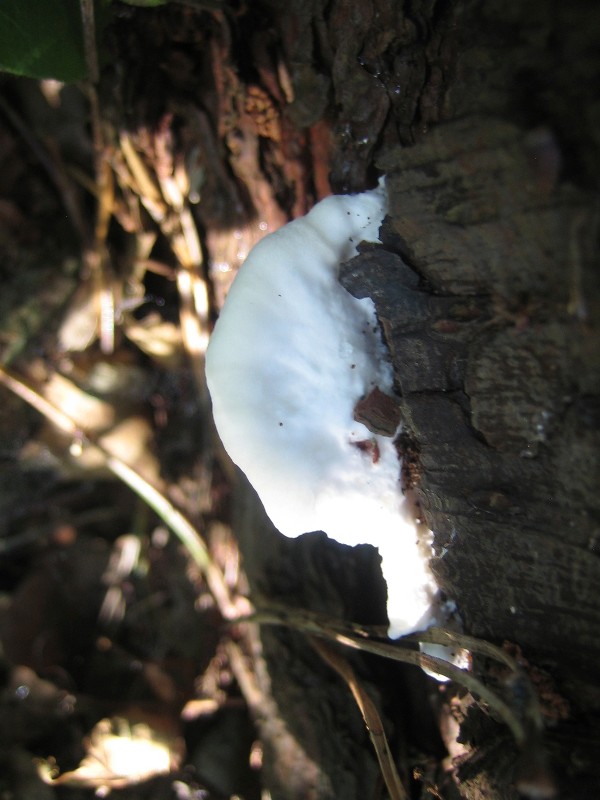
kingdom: Fungi
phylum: Basidiomycota
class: Agaricomycetes
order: Polyporales
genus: Amaropostia
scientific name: Amaropostia stiptica
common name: bitter kødporesvamp
